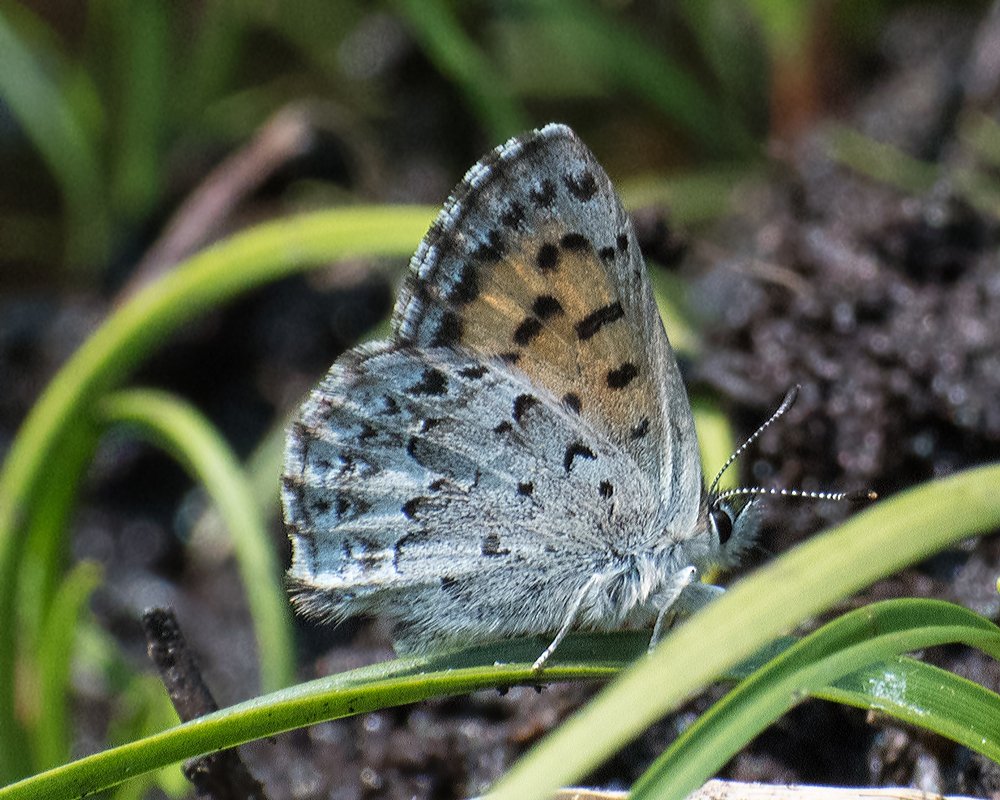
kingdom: Animalia
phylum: Arthropoda
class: Insecta
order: Lepidoptera
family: Lycaenidae
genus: Lycaena
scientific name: Lycaena mariposa
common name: Mariposa Copper
